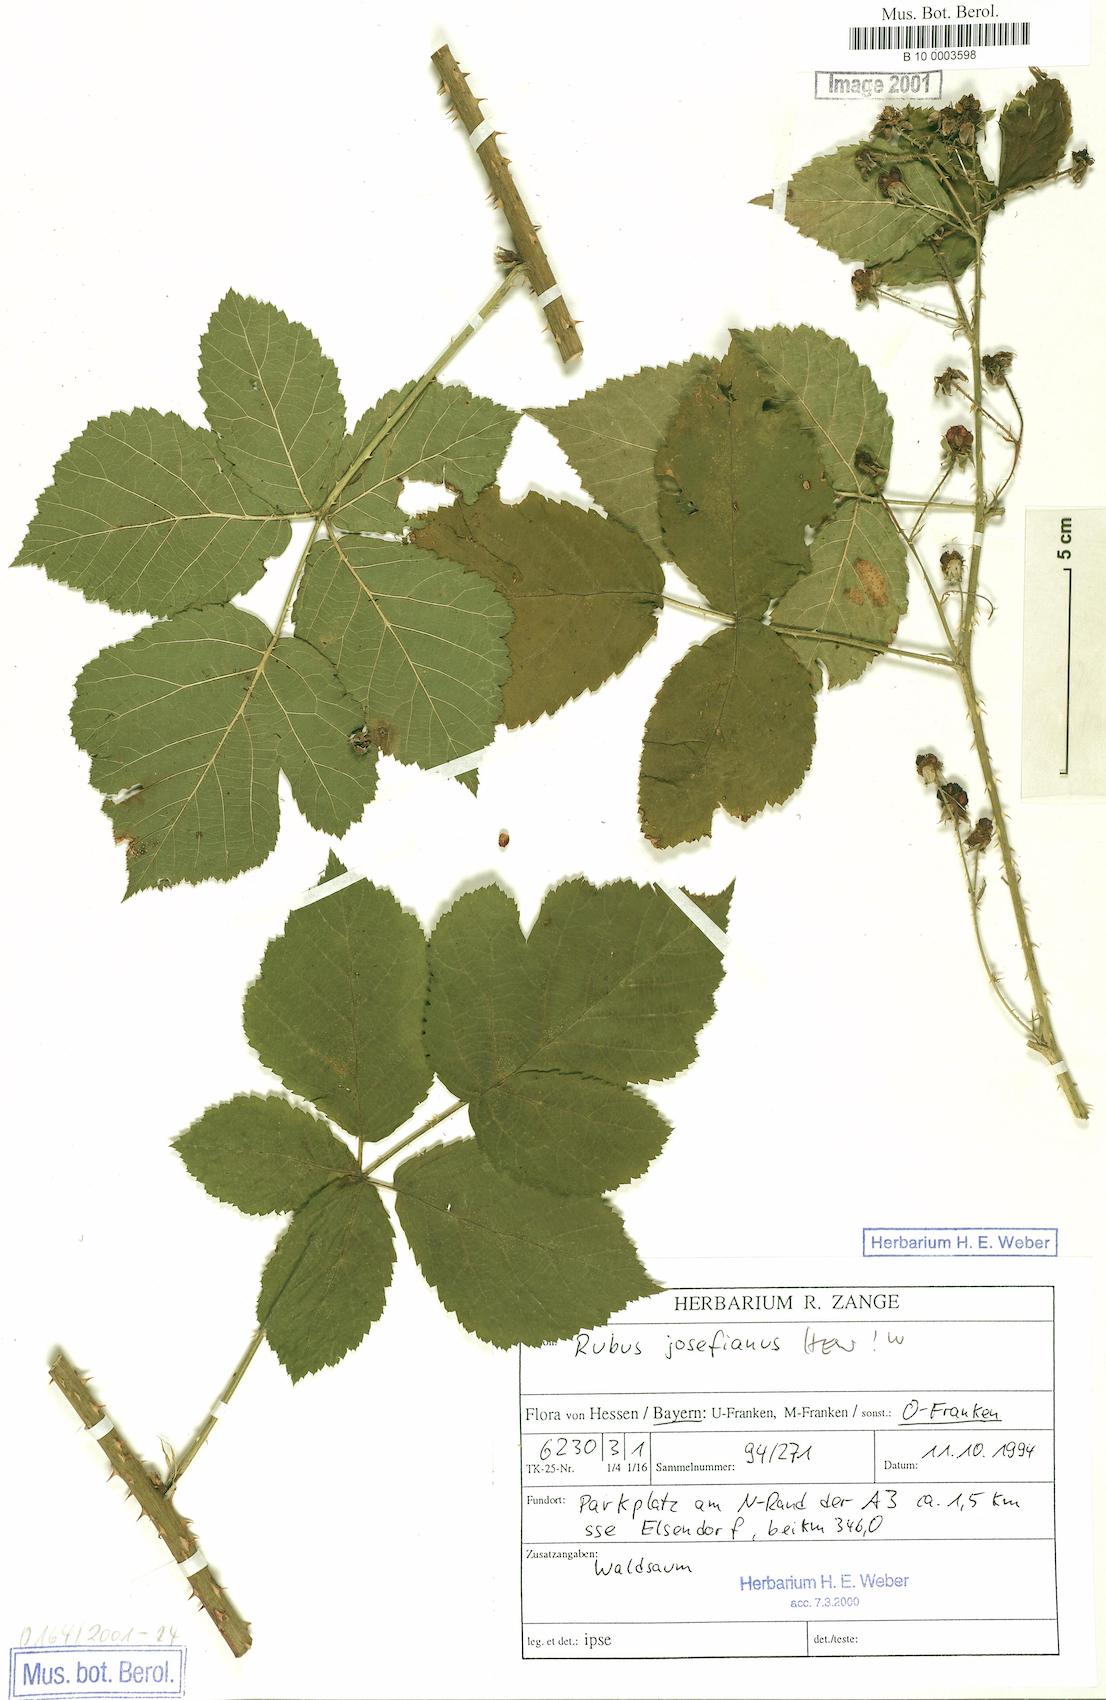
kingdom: Plantae
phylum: Tracheophyta
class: Magnoliopsida
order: Rosales
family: Rosaceae
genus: Rubus
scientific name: Rubus josefianus
